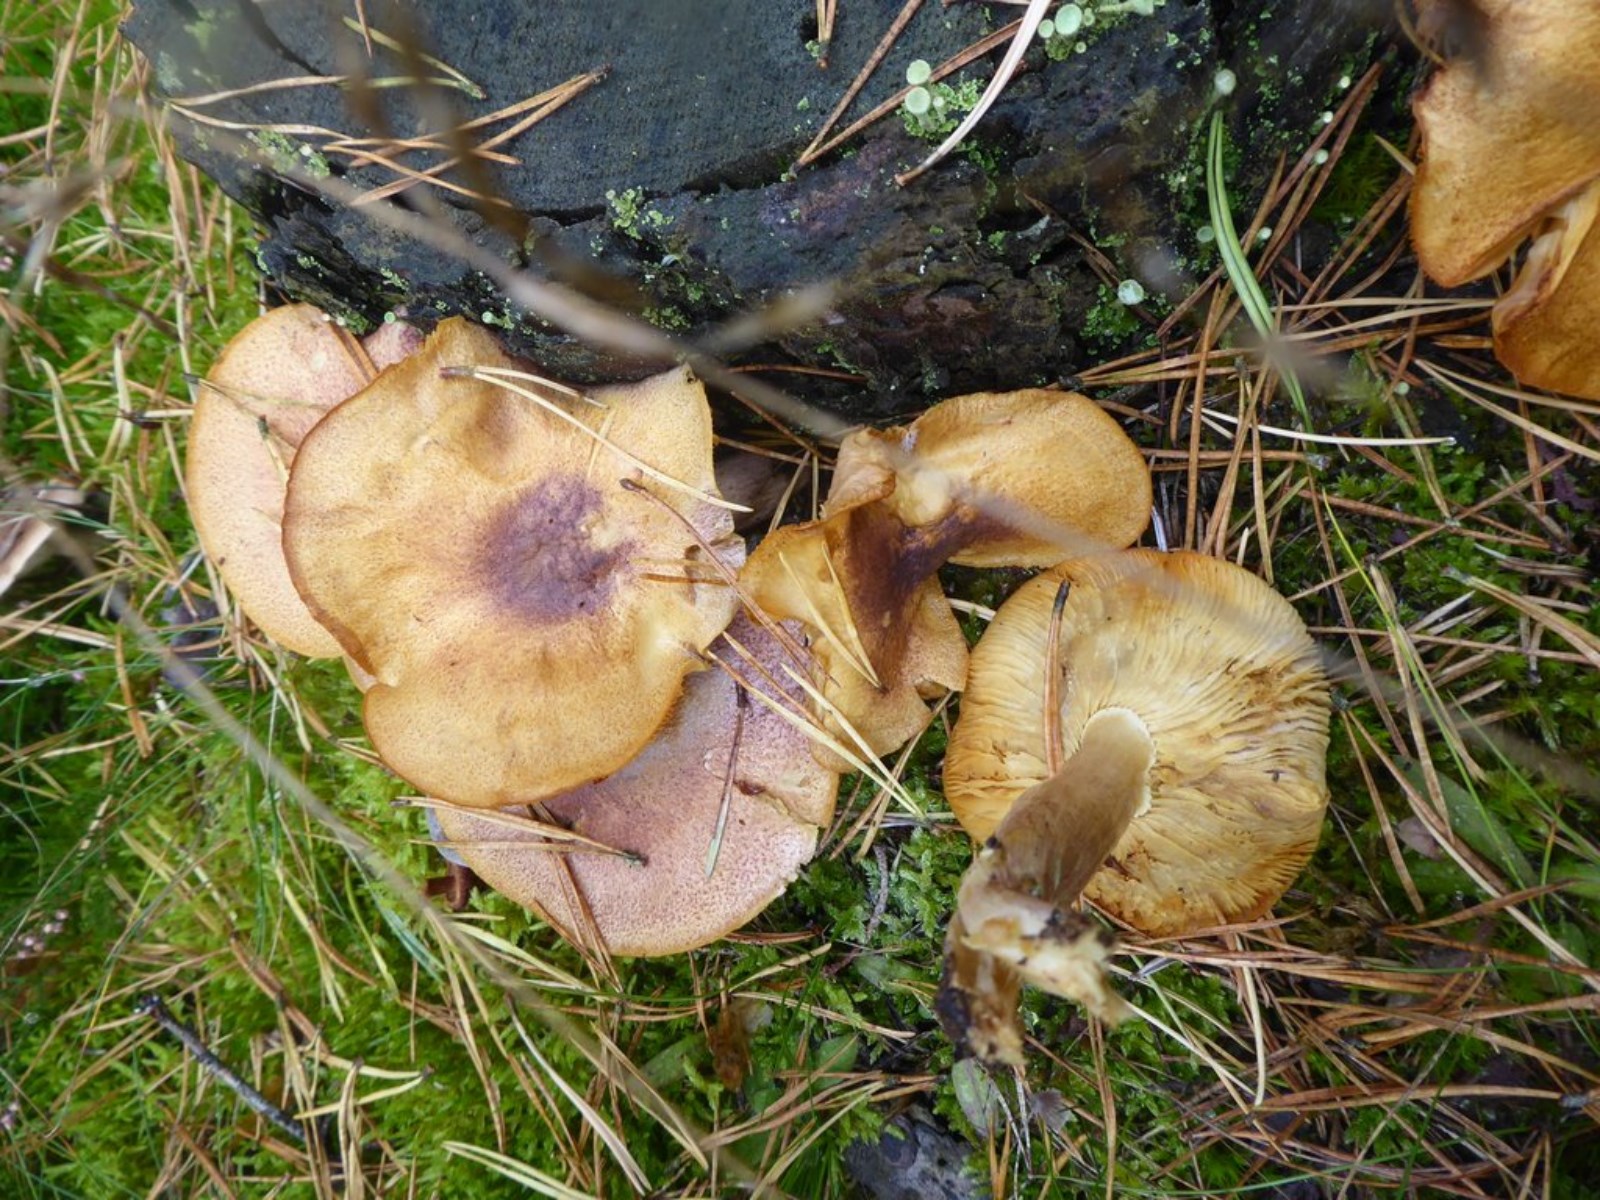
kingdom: Fungi
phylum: Basidiomycota
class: Agaricomycetes
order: Agaricales
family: Tricholomataceae
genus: Tricholomopsis
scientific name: Tricholomopsis rutilans
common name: purpur-væbnerhat
